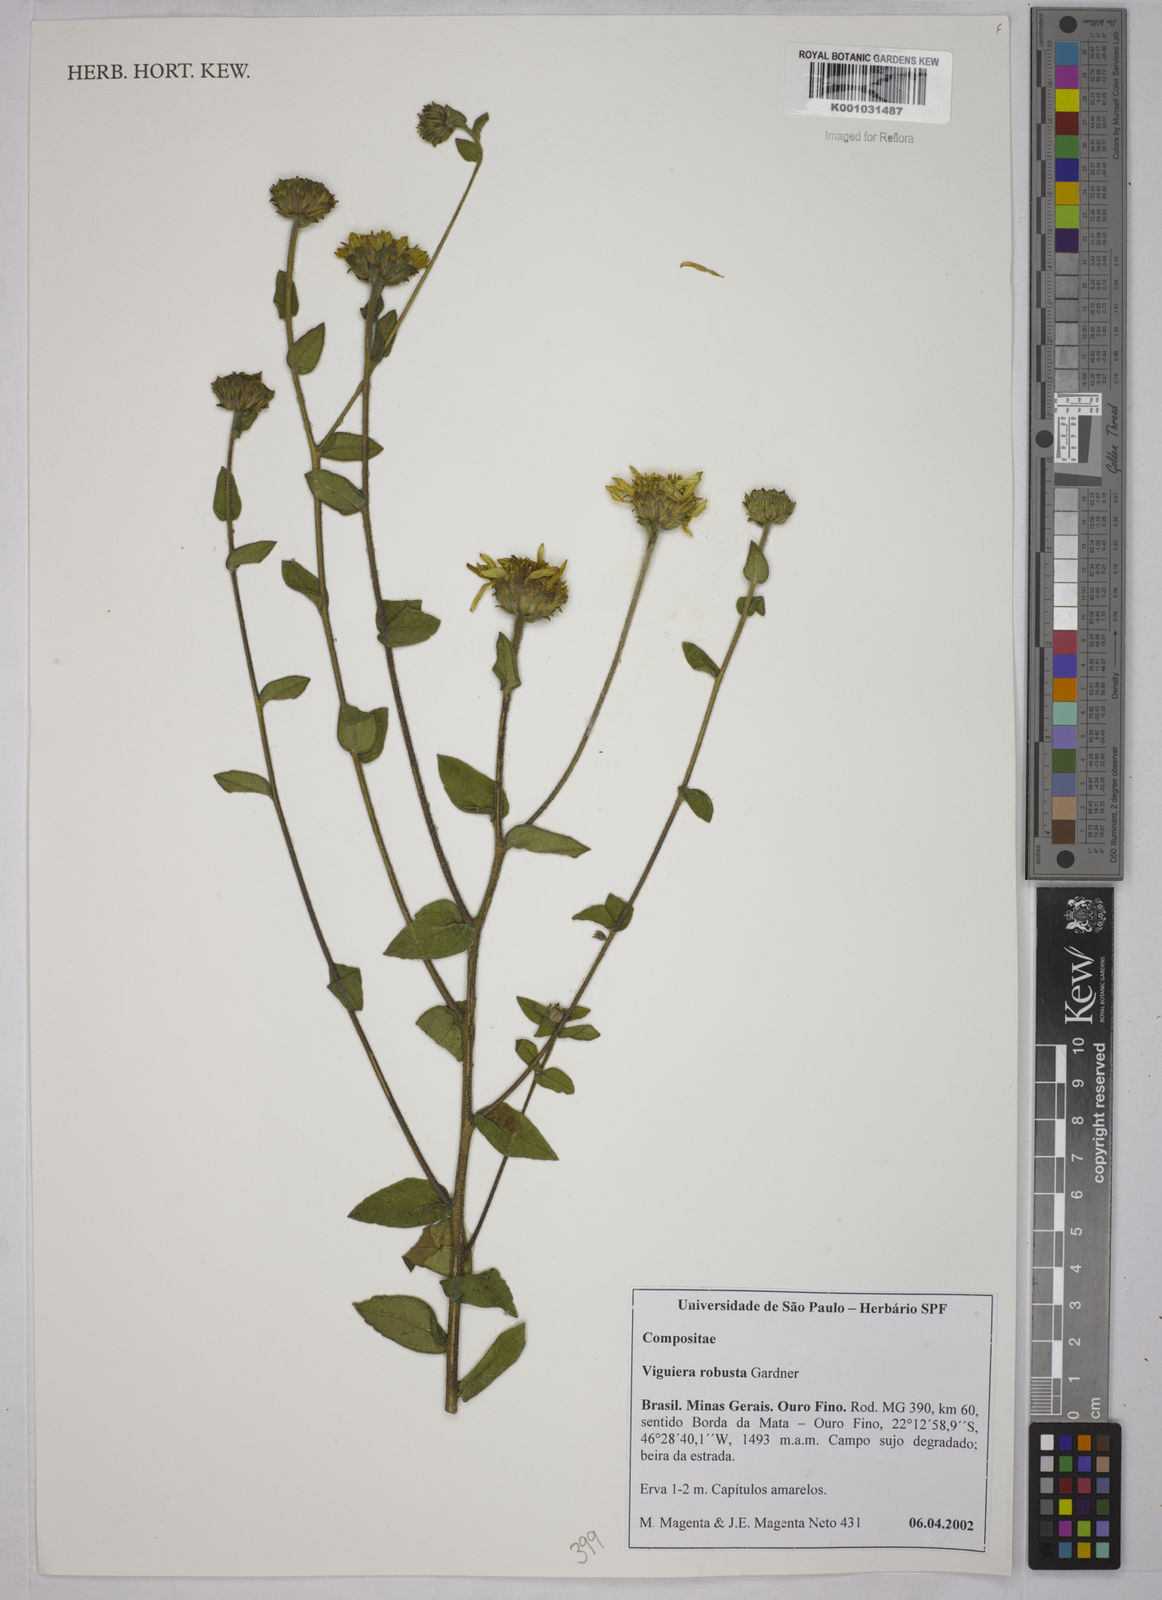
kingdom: Plantae
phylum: Tracheophyta
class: Magnoliopsida
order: Asterales
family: Asteraceae
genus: Aldama
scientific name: Aldama robusta
